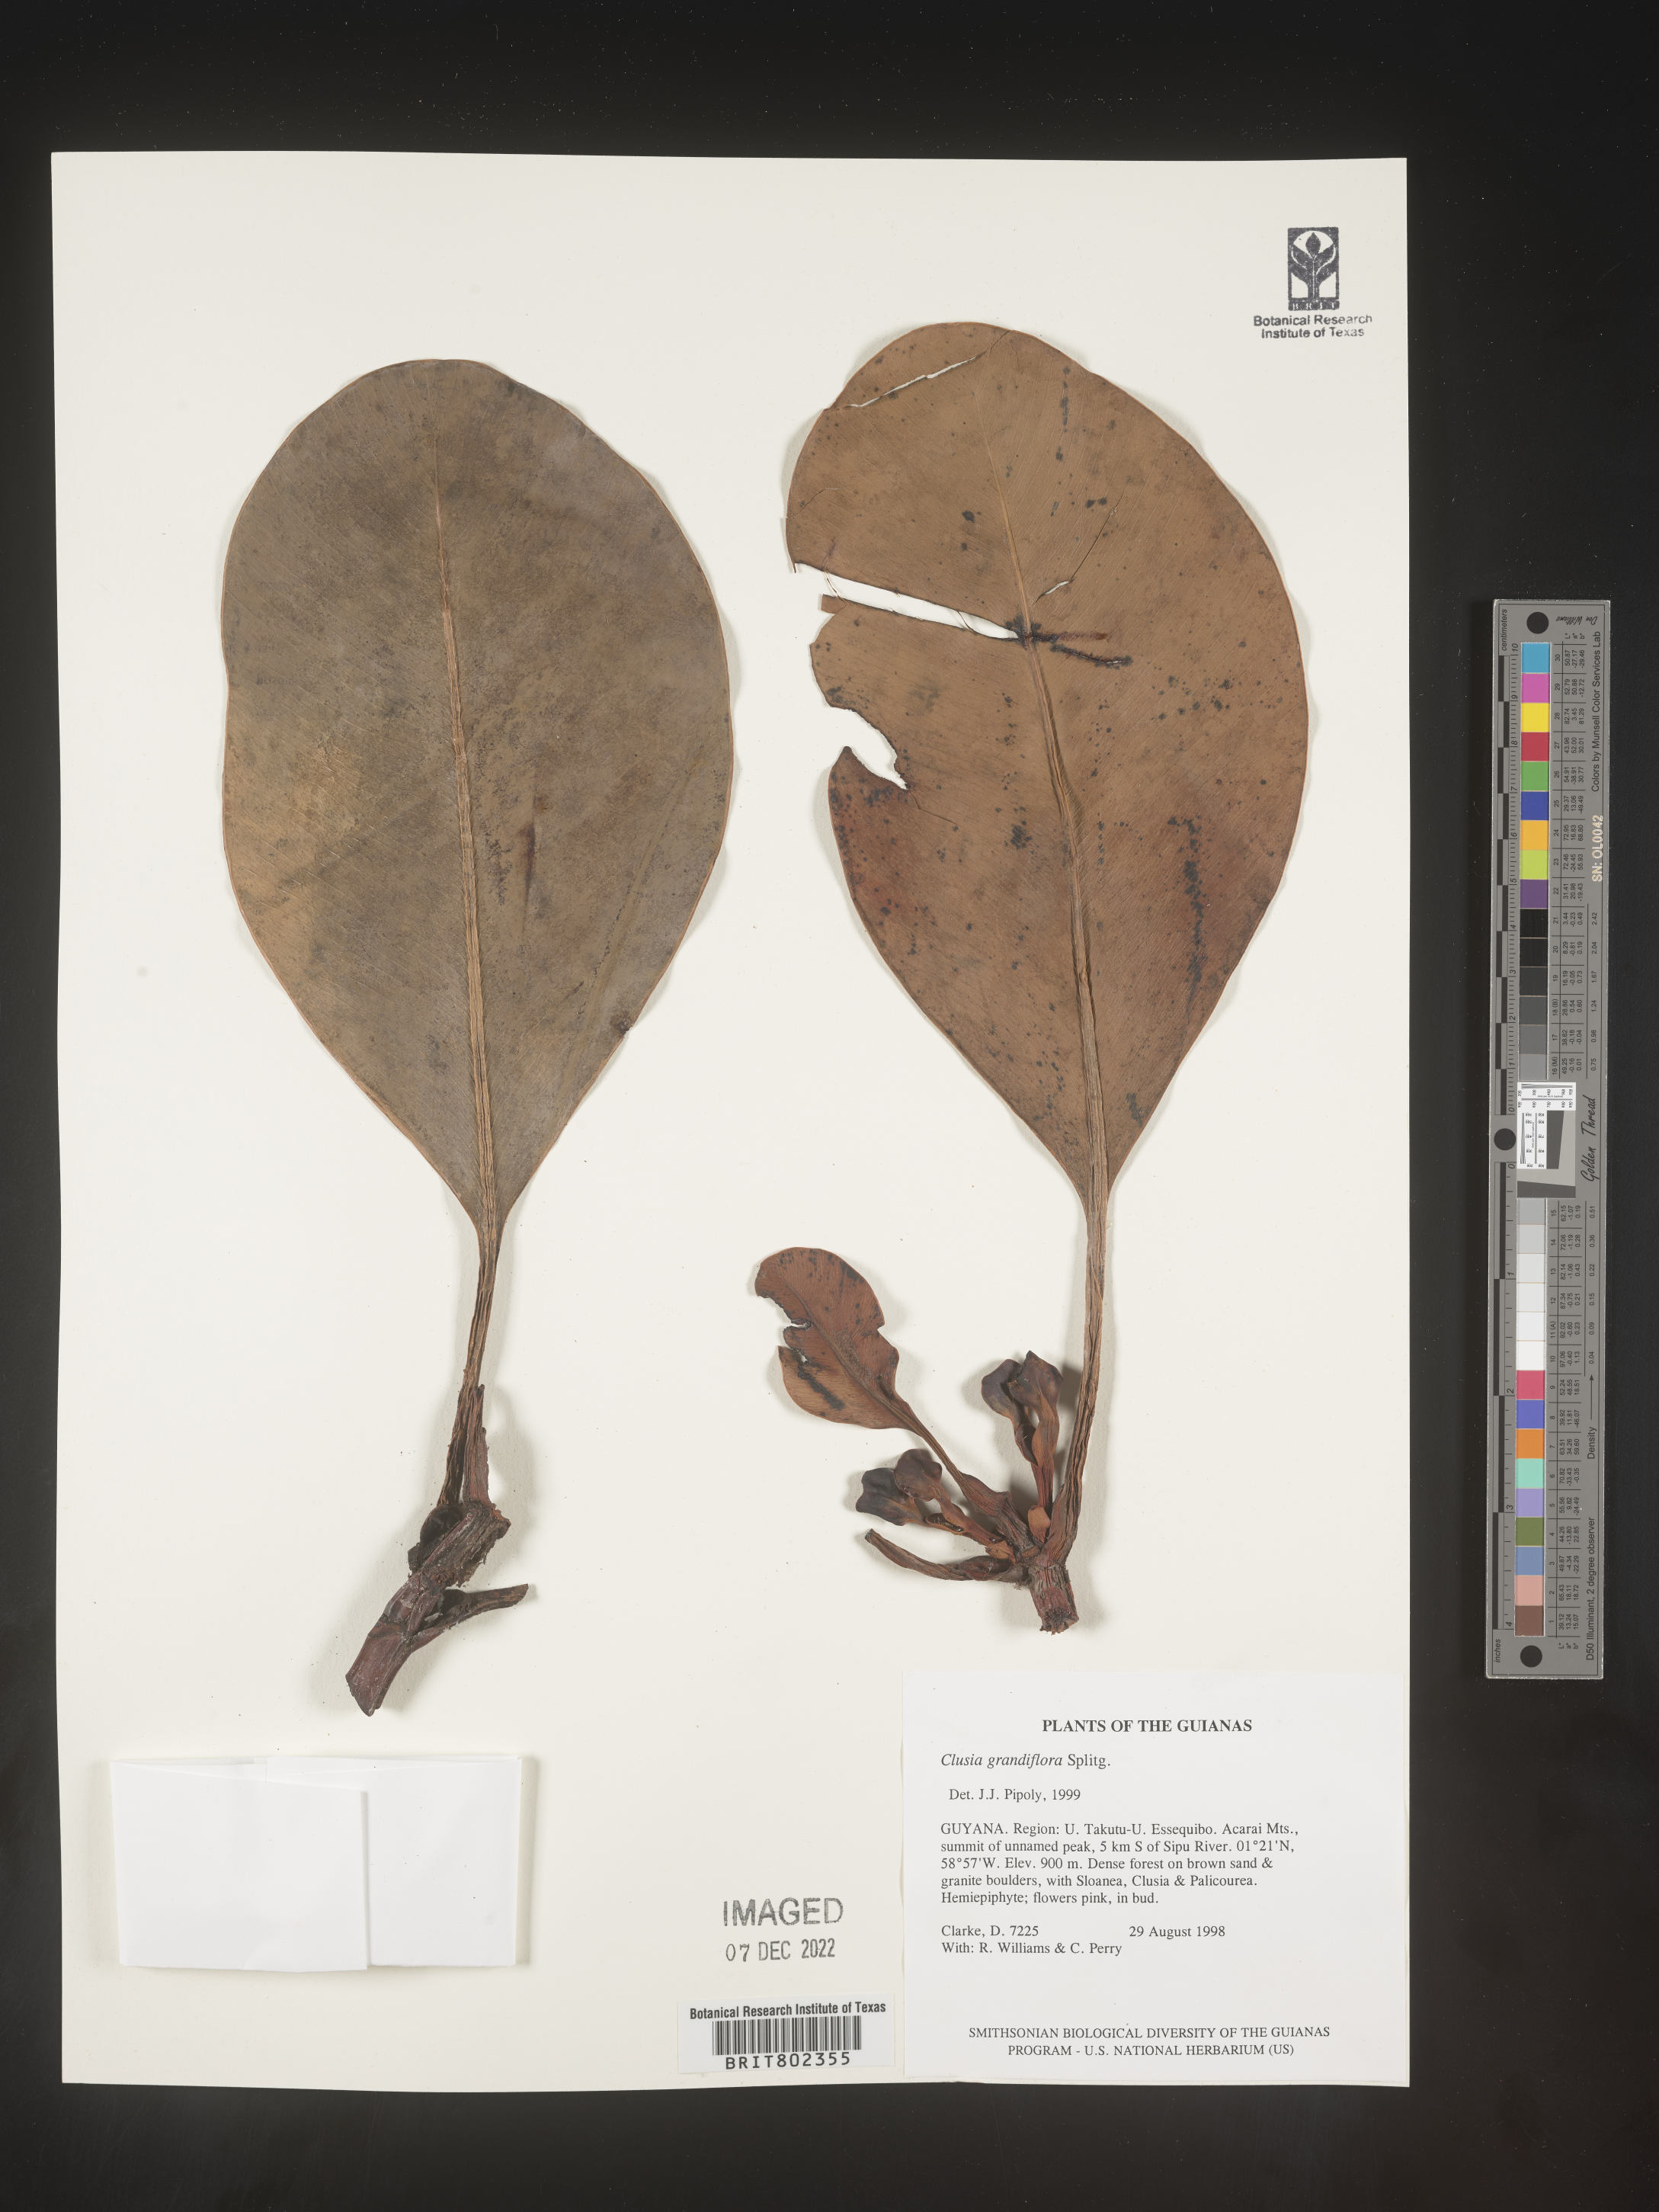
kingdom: Plantae
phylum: Tracheophyta
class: Magnoliopsida
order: Malpighiales
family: Clusiaceae
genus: Clusia
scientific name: Clusia grandiflora
